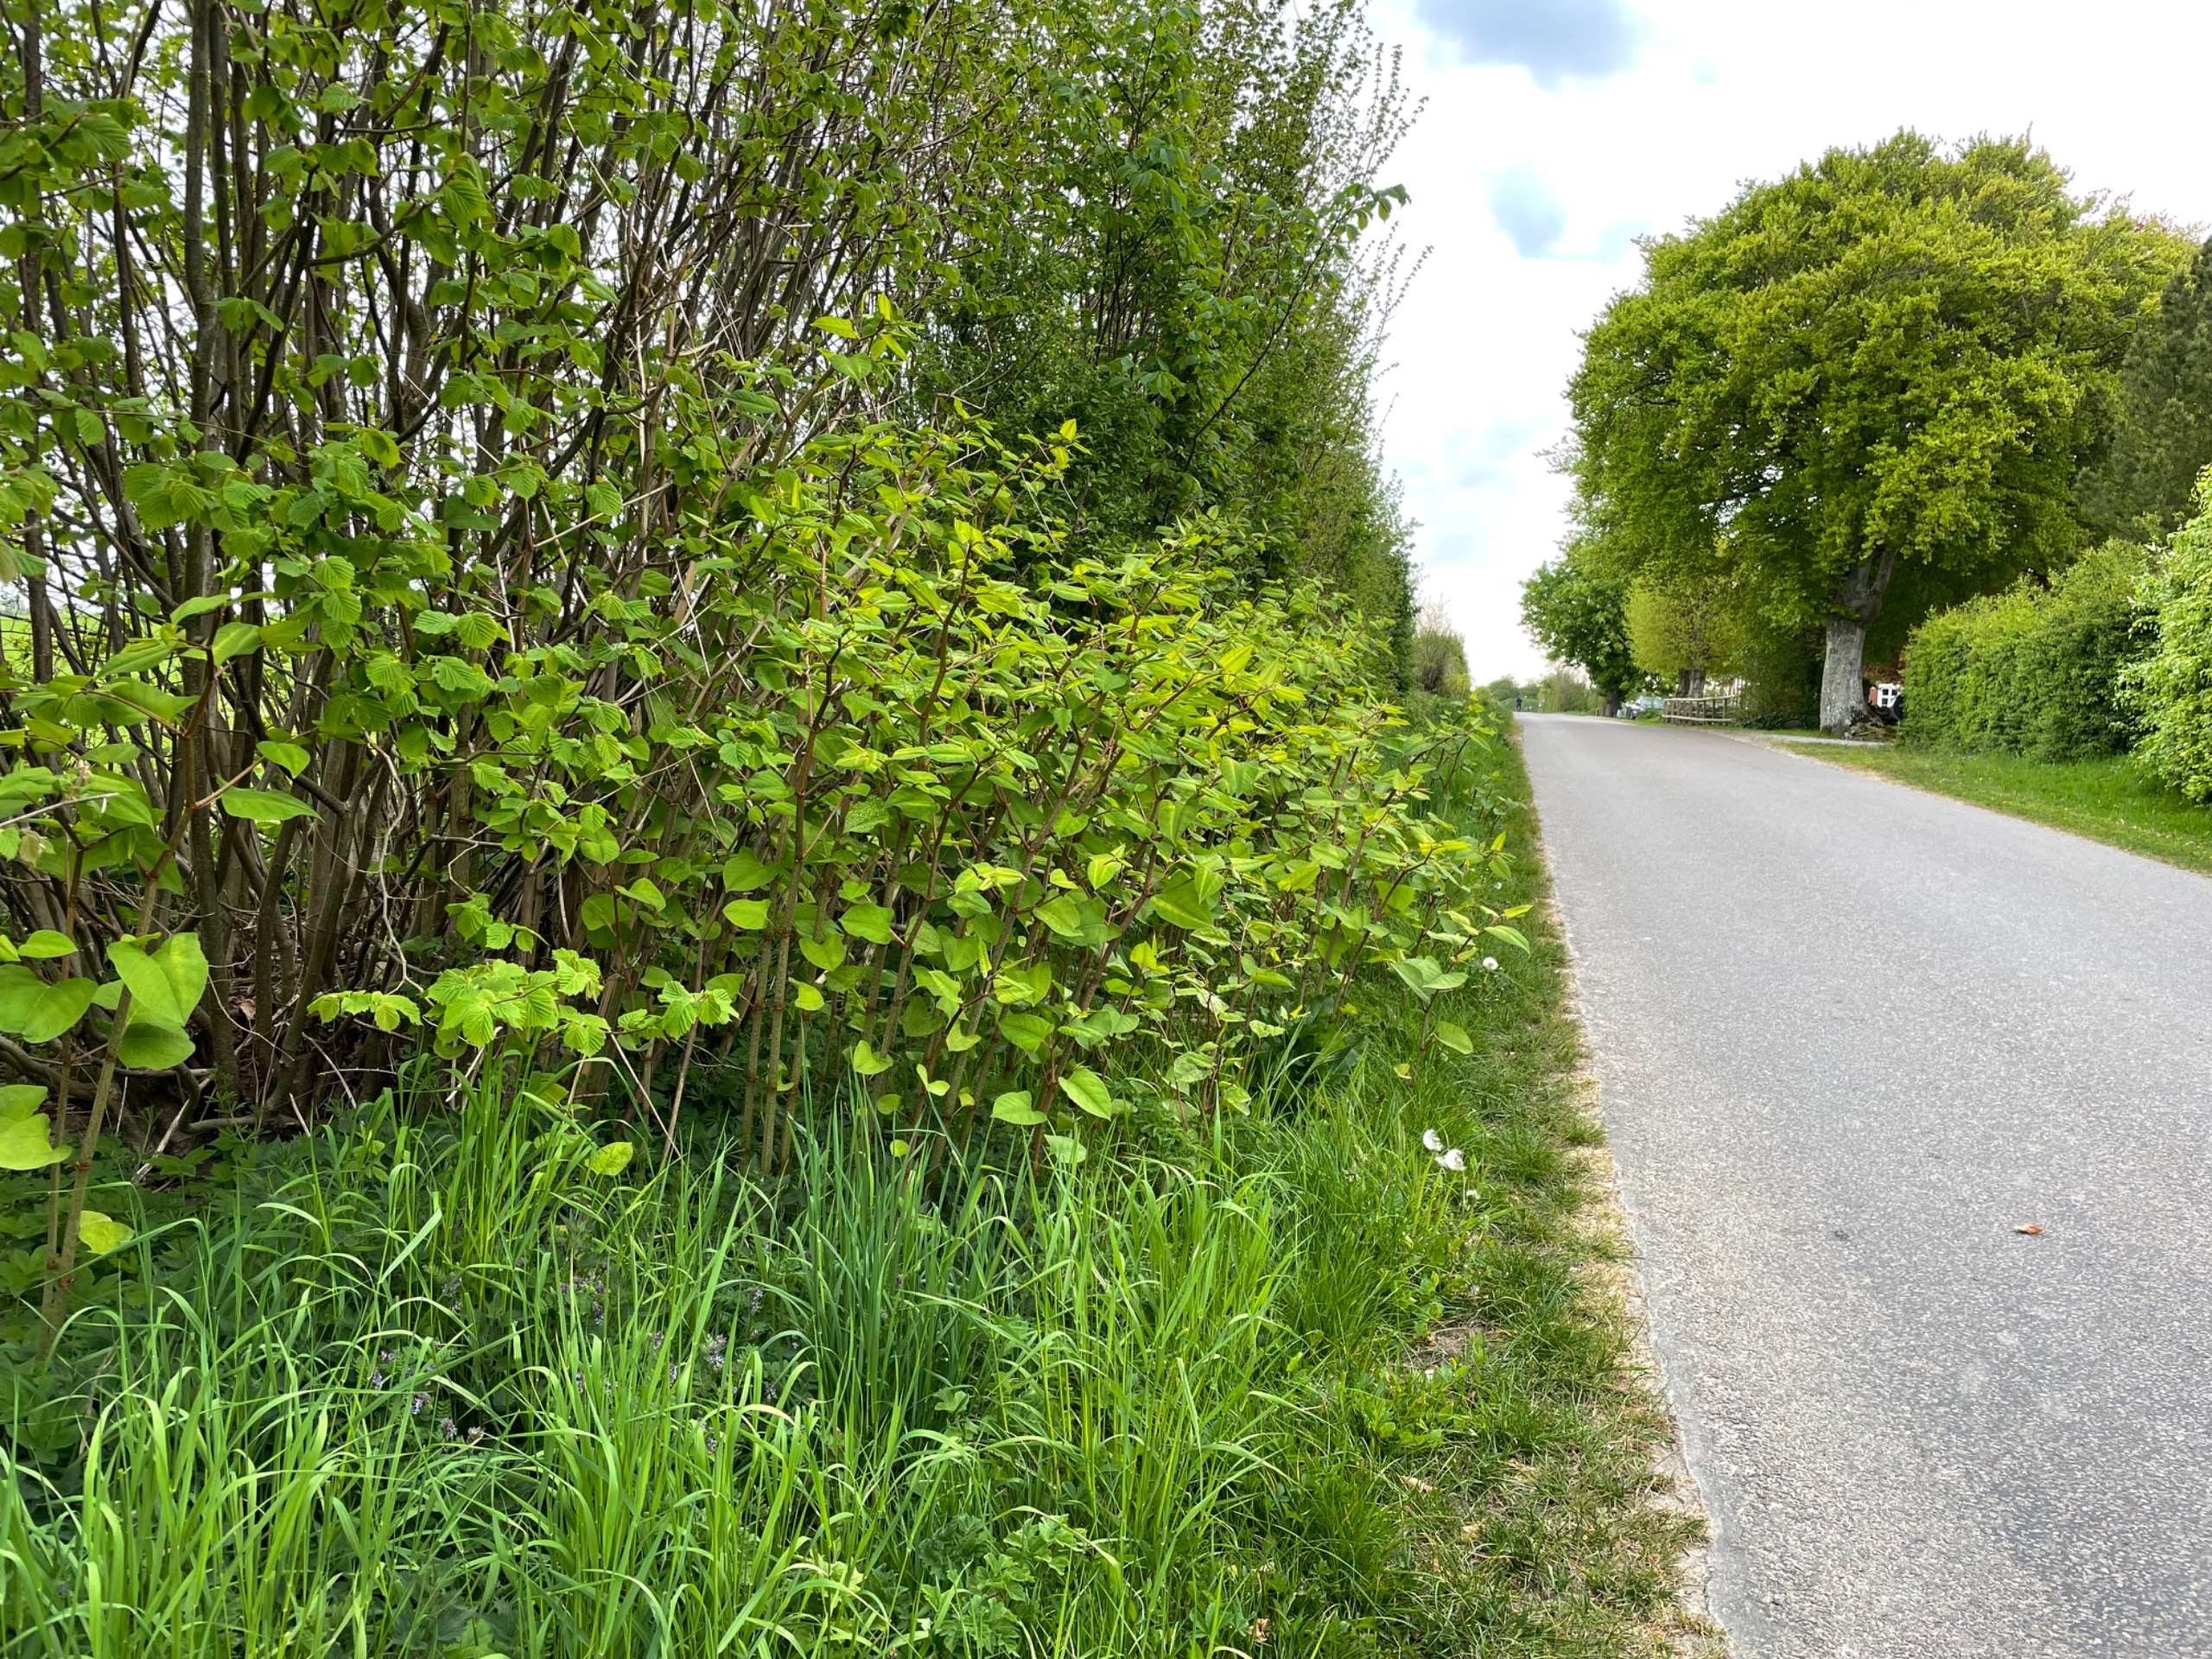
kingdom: Plantae
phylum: Tracheophyta
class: Magnoliopsida
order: Caryophyllales
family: Polygonaceae
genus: Reynoutria
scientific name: Reynoutria japonica
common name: Japan-pileurt
